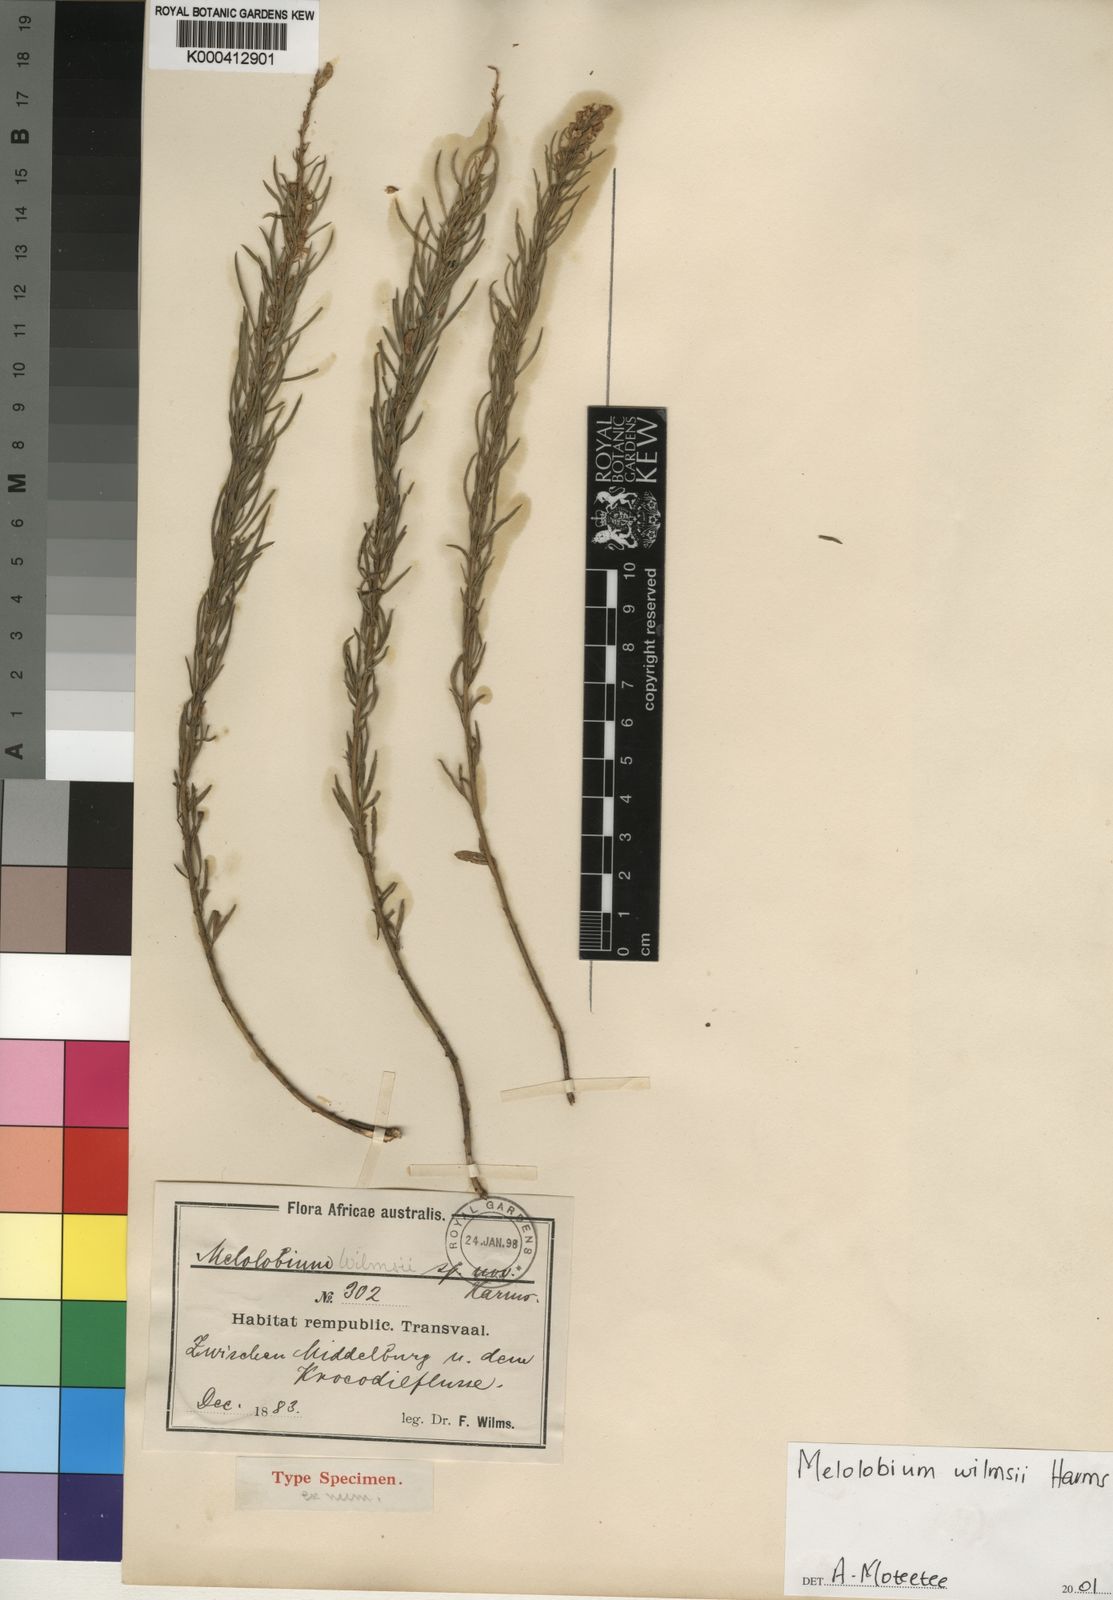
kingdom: Plantae
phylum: Tracheophyta
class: Magnoliopsida
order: Fabales
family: Fabaceae
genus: Melolobium
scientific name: Melolobium wilmsii
